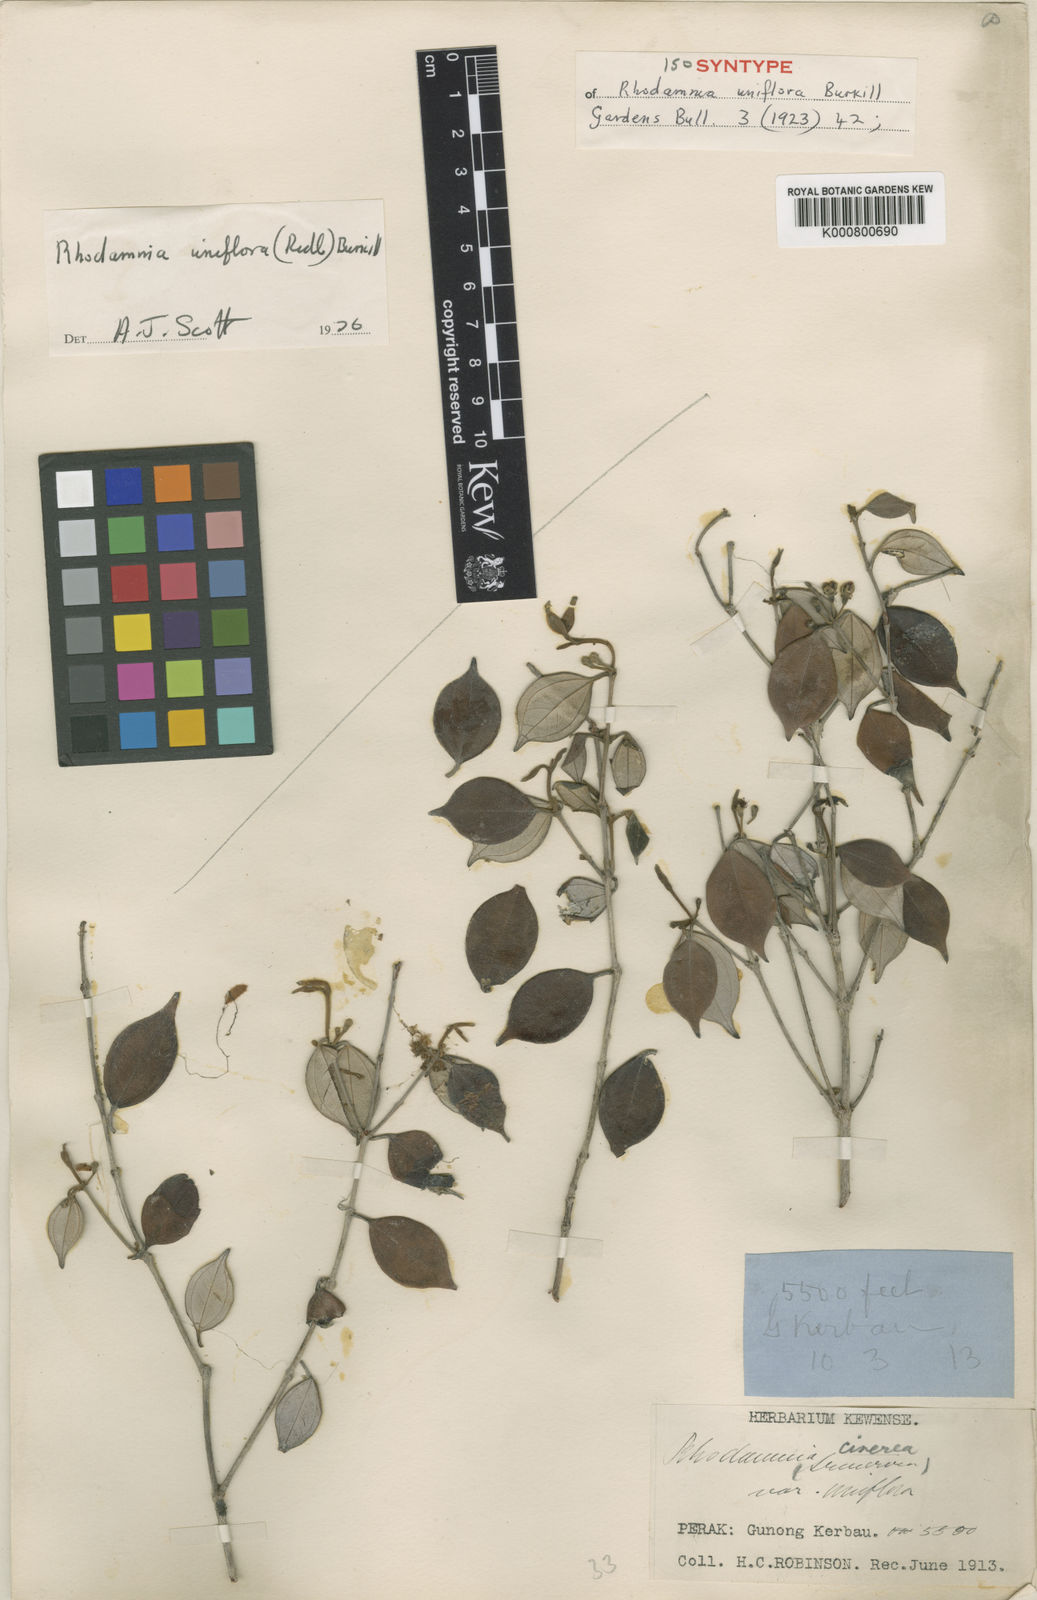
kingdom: Plantae
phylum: Tracheophyta
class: Magnoliopsida
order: Myrtales
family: Myrtaceae
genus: Rhodamnia
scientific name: Rhodamnia uniflora
